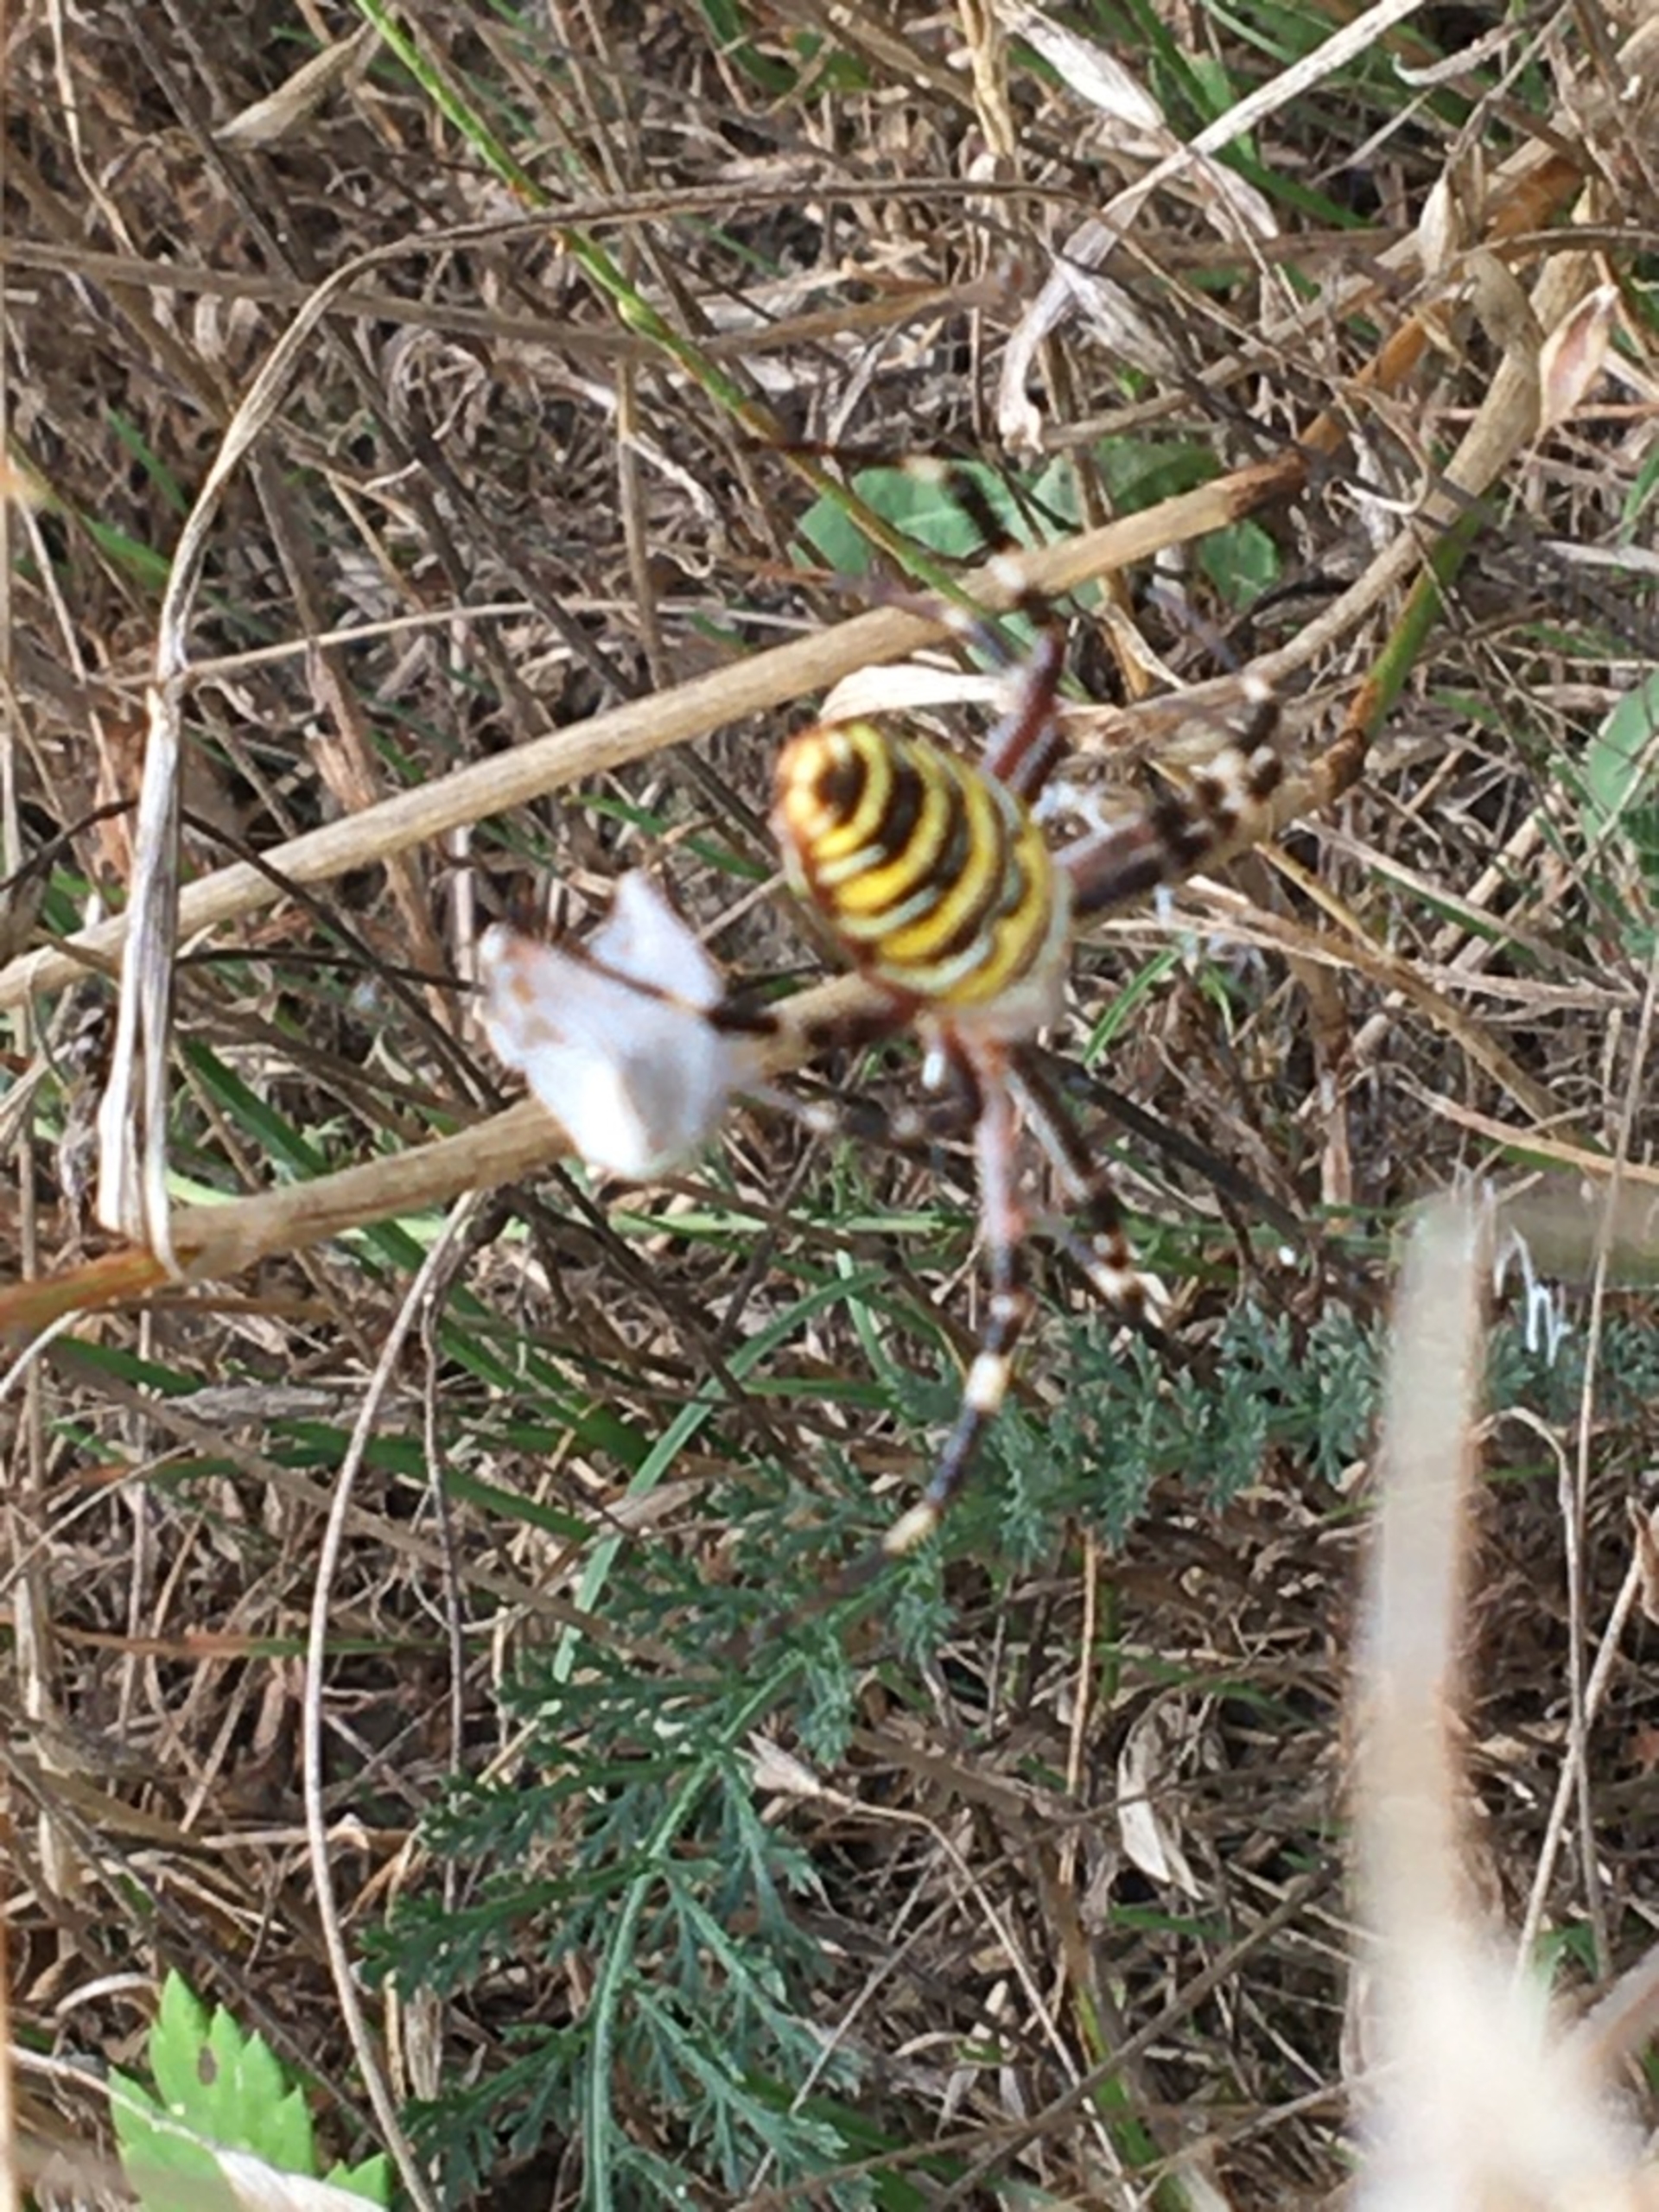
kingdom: Animalia
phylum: Arthropoda
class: Arachnida
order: Araneae
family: Araneidae
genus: Argiope
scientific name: Argiope bruennichi
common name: Hvepseedderkop
